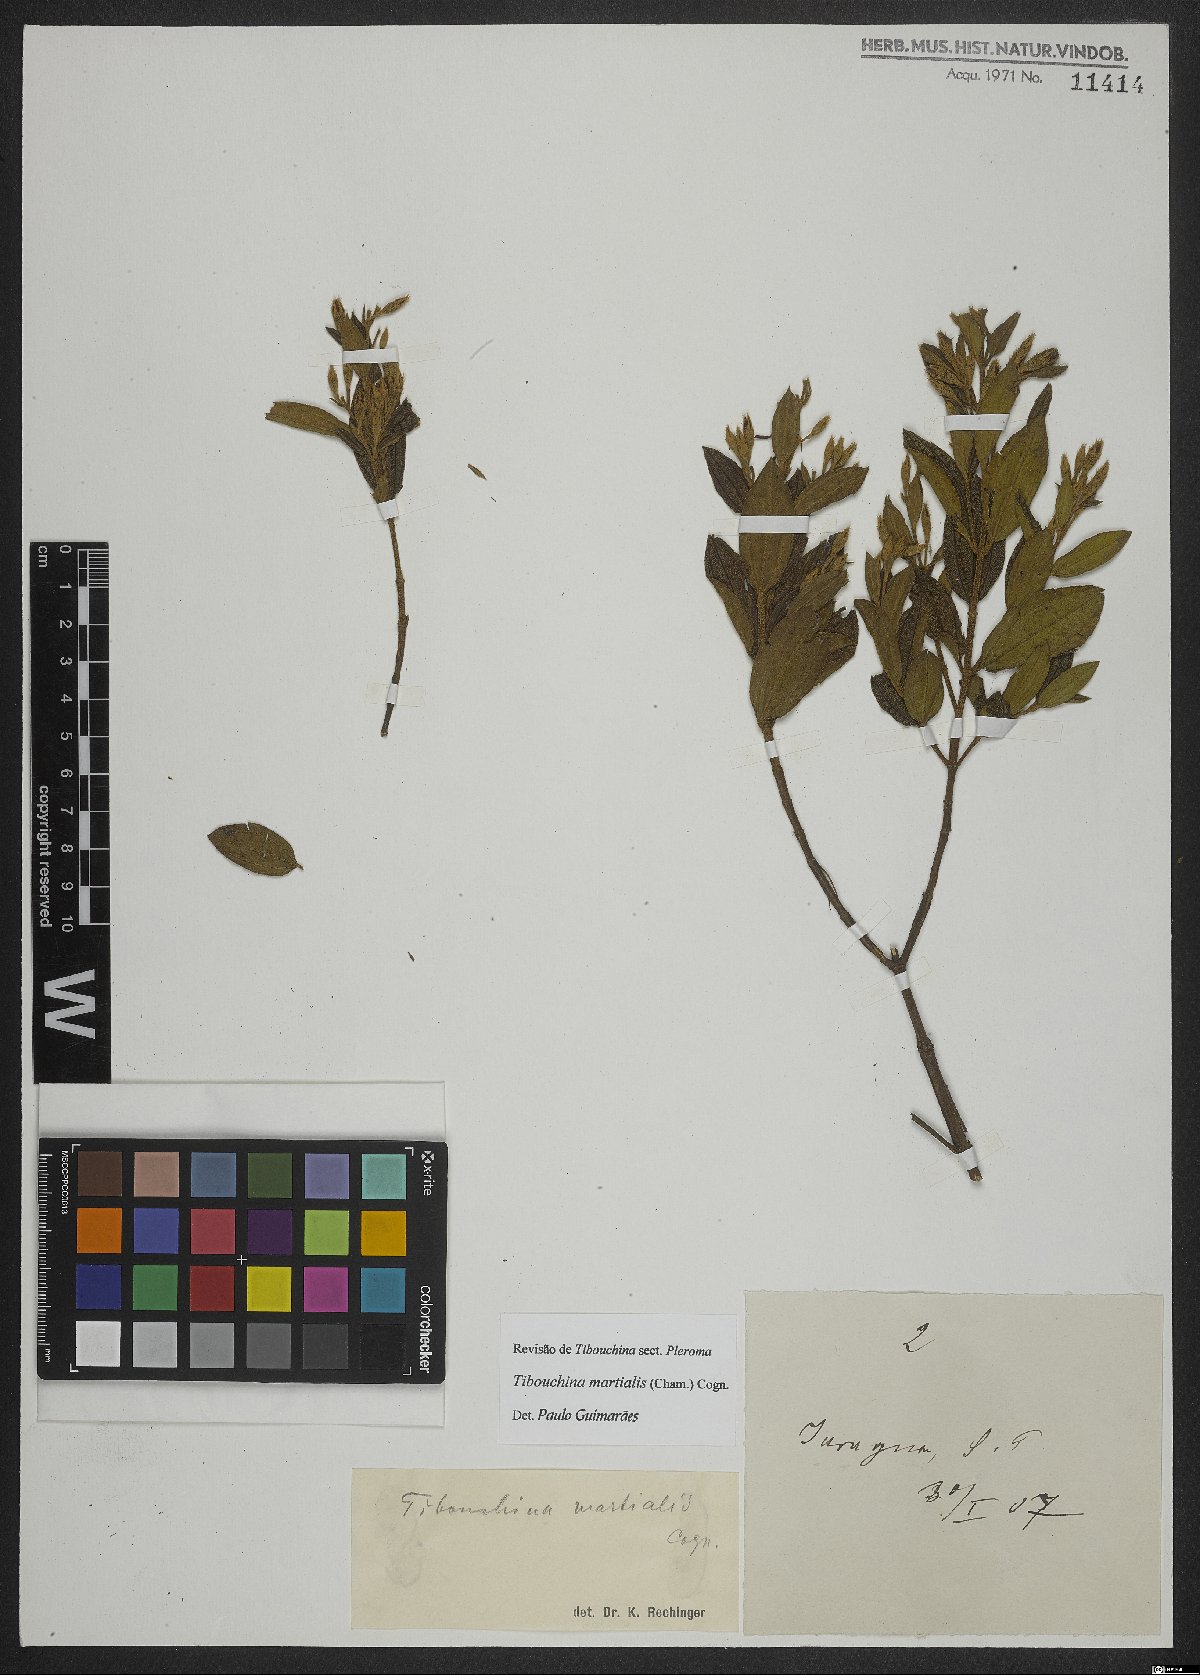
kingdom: Plantae
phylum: Tracheophyta
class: Magnoliopsida
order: Myrtales
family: Melastomataceae
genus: Pleroma
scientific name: Pleroma martiale
